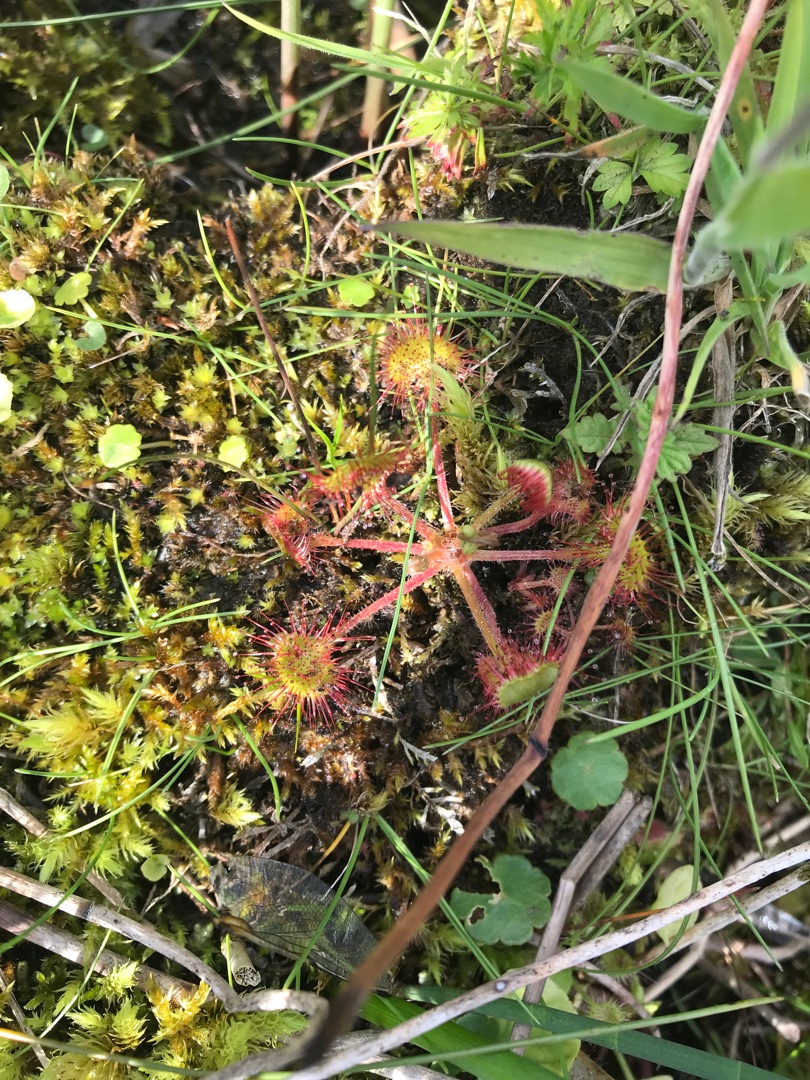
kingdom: Plantae
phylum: Tracheophyta
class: Magnoliopsida
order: Caryophyllales
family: Droseraceae
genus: Drosera
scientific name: Drosera rotundifolia
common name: Rundbladet soldug
